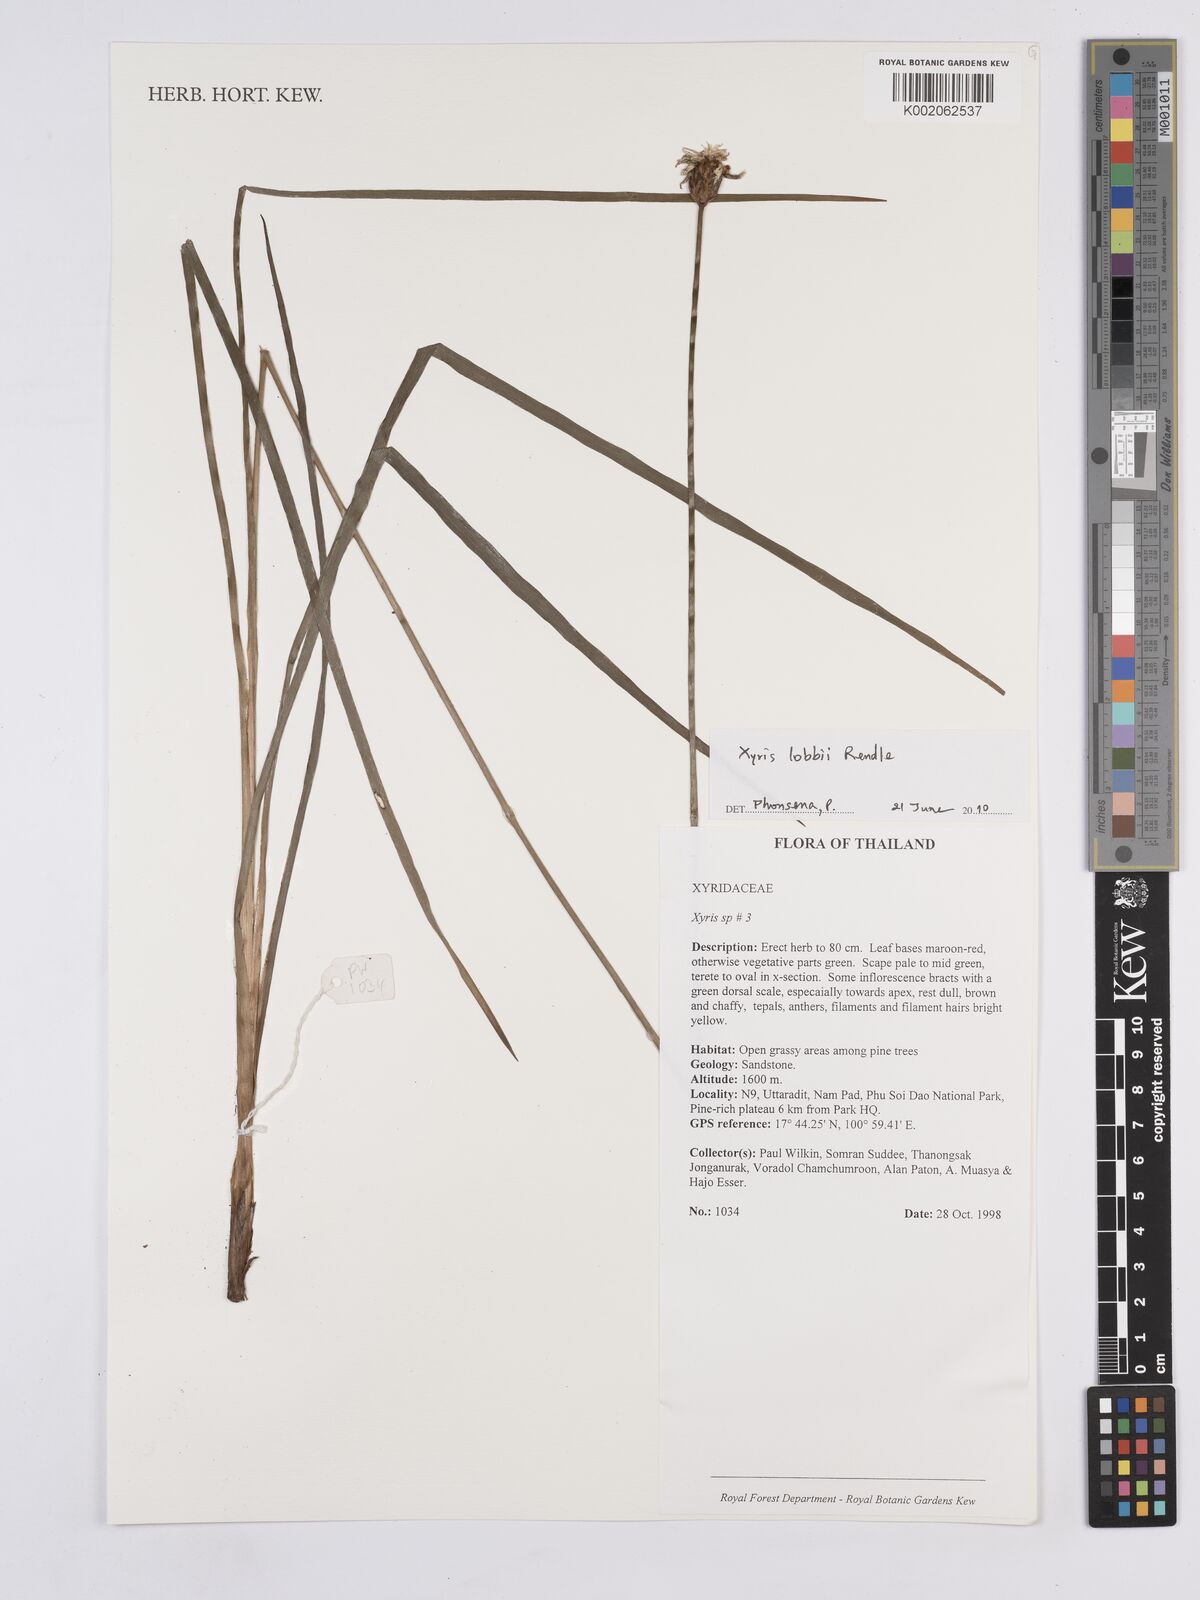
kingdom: Plantae
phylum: Tracheophyta
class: Liliopsida
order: Poales
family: Xyridaceae
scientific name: Xyridaceae
